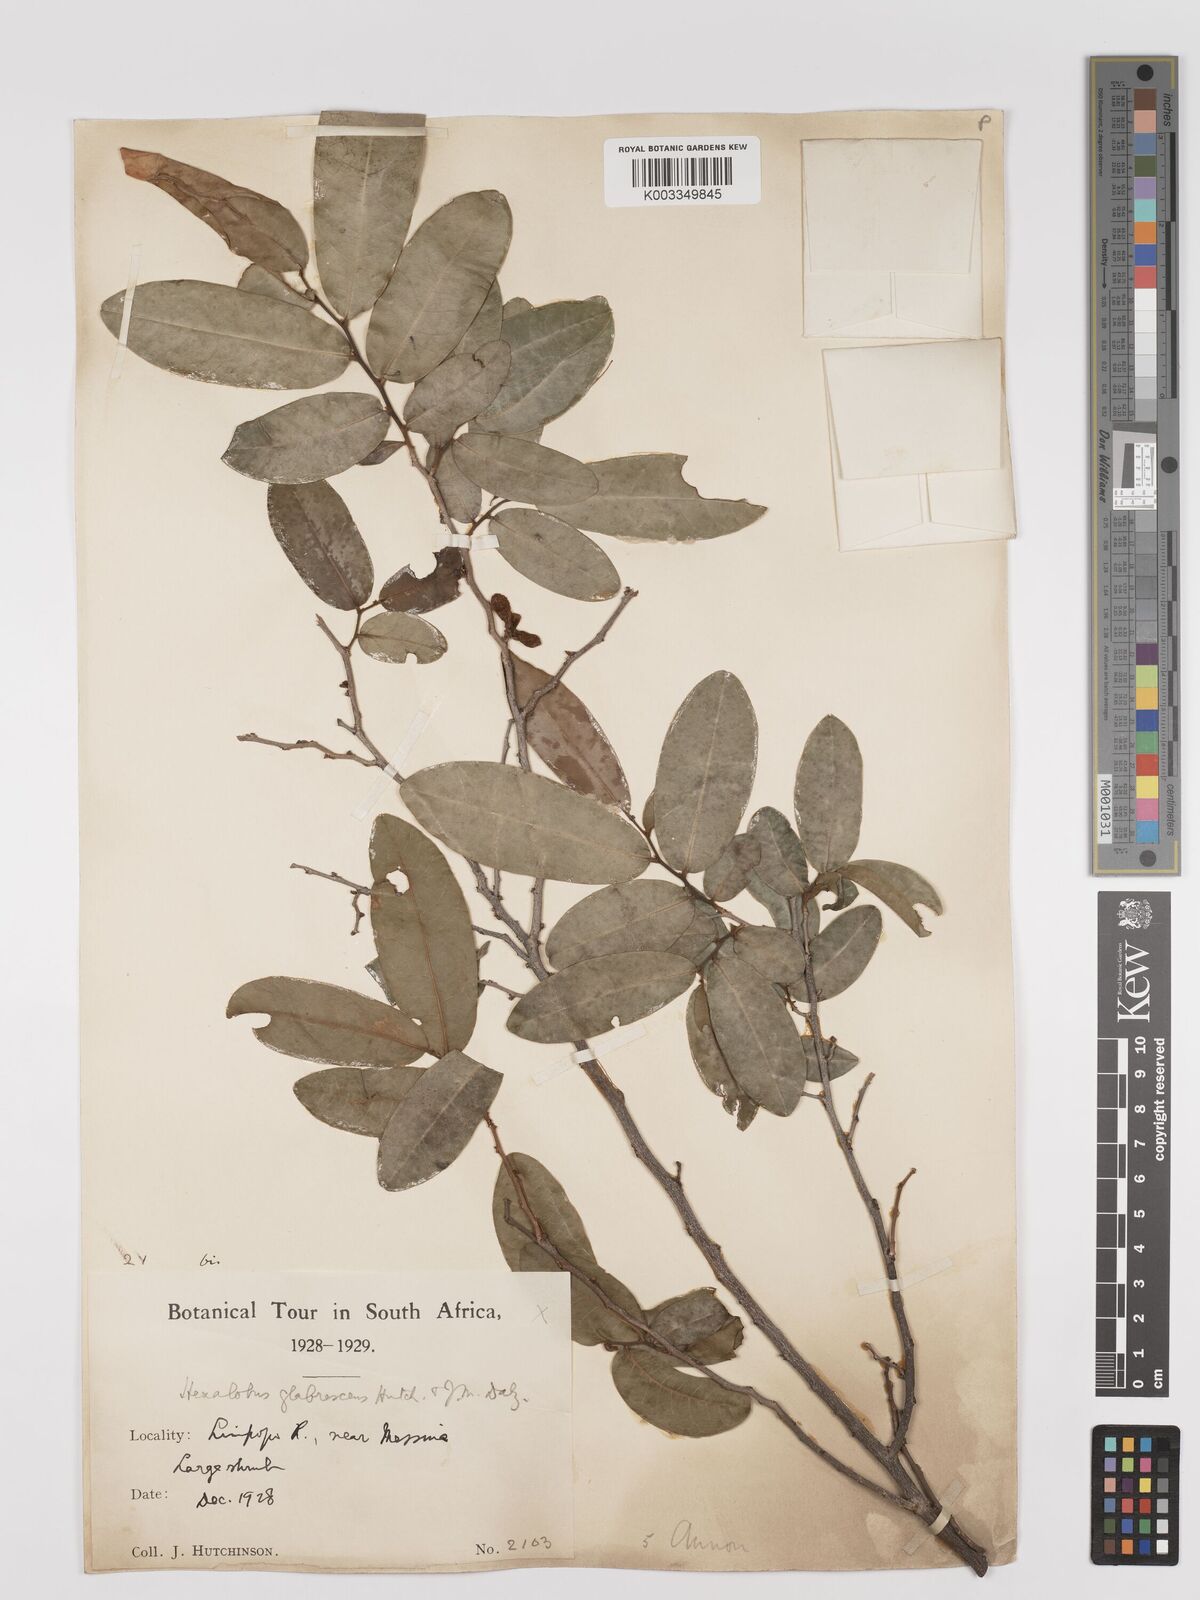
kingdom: Plantae
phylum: Tracheophyta
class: Magnoliopsida
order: Magnoliales
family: Annonaceae
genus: Hexalobus
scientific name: Hexalobus monopetalus
